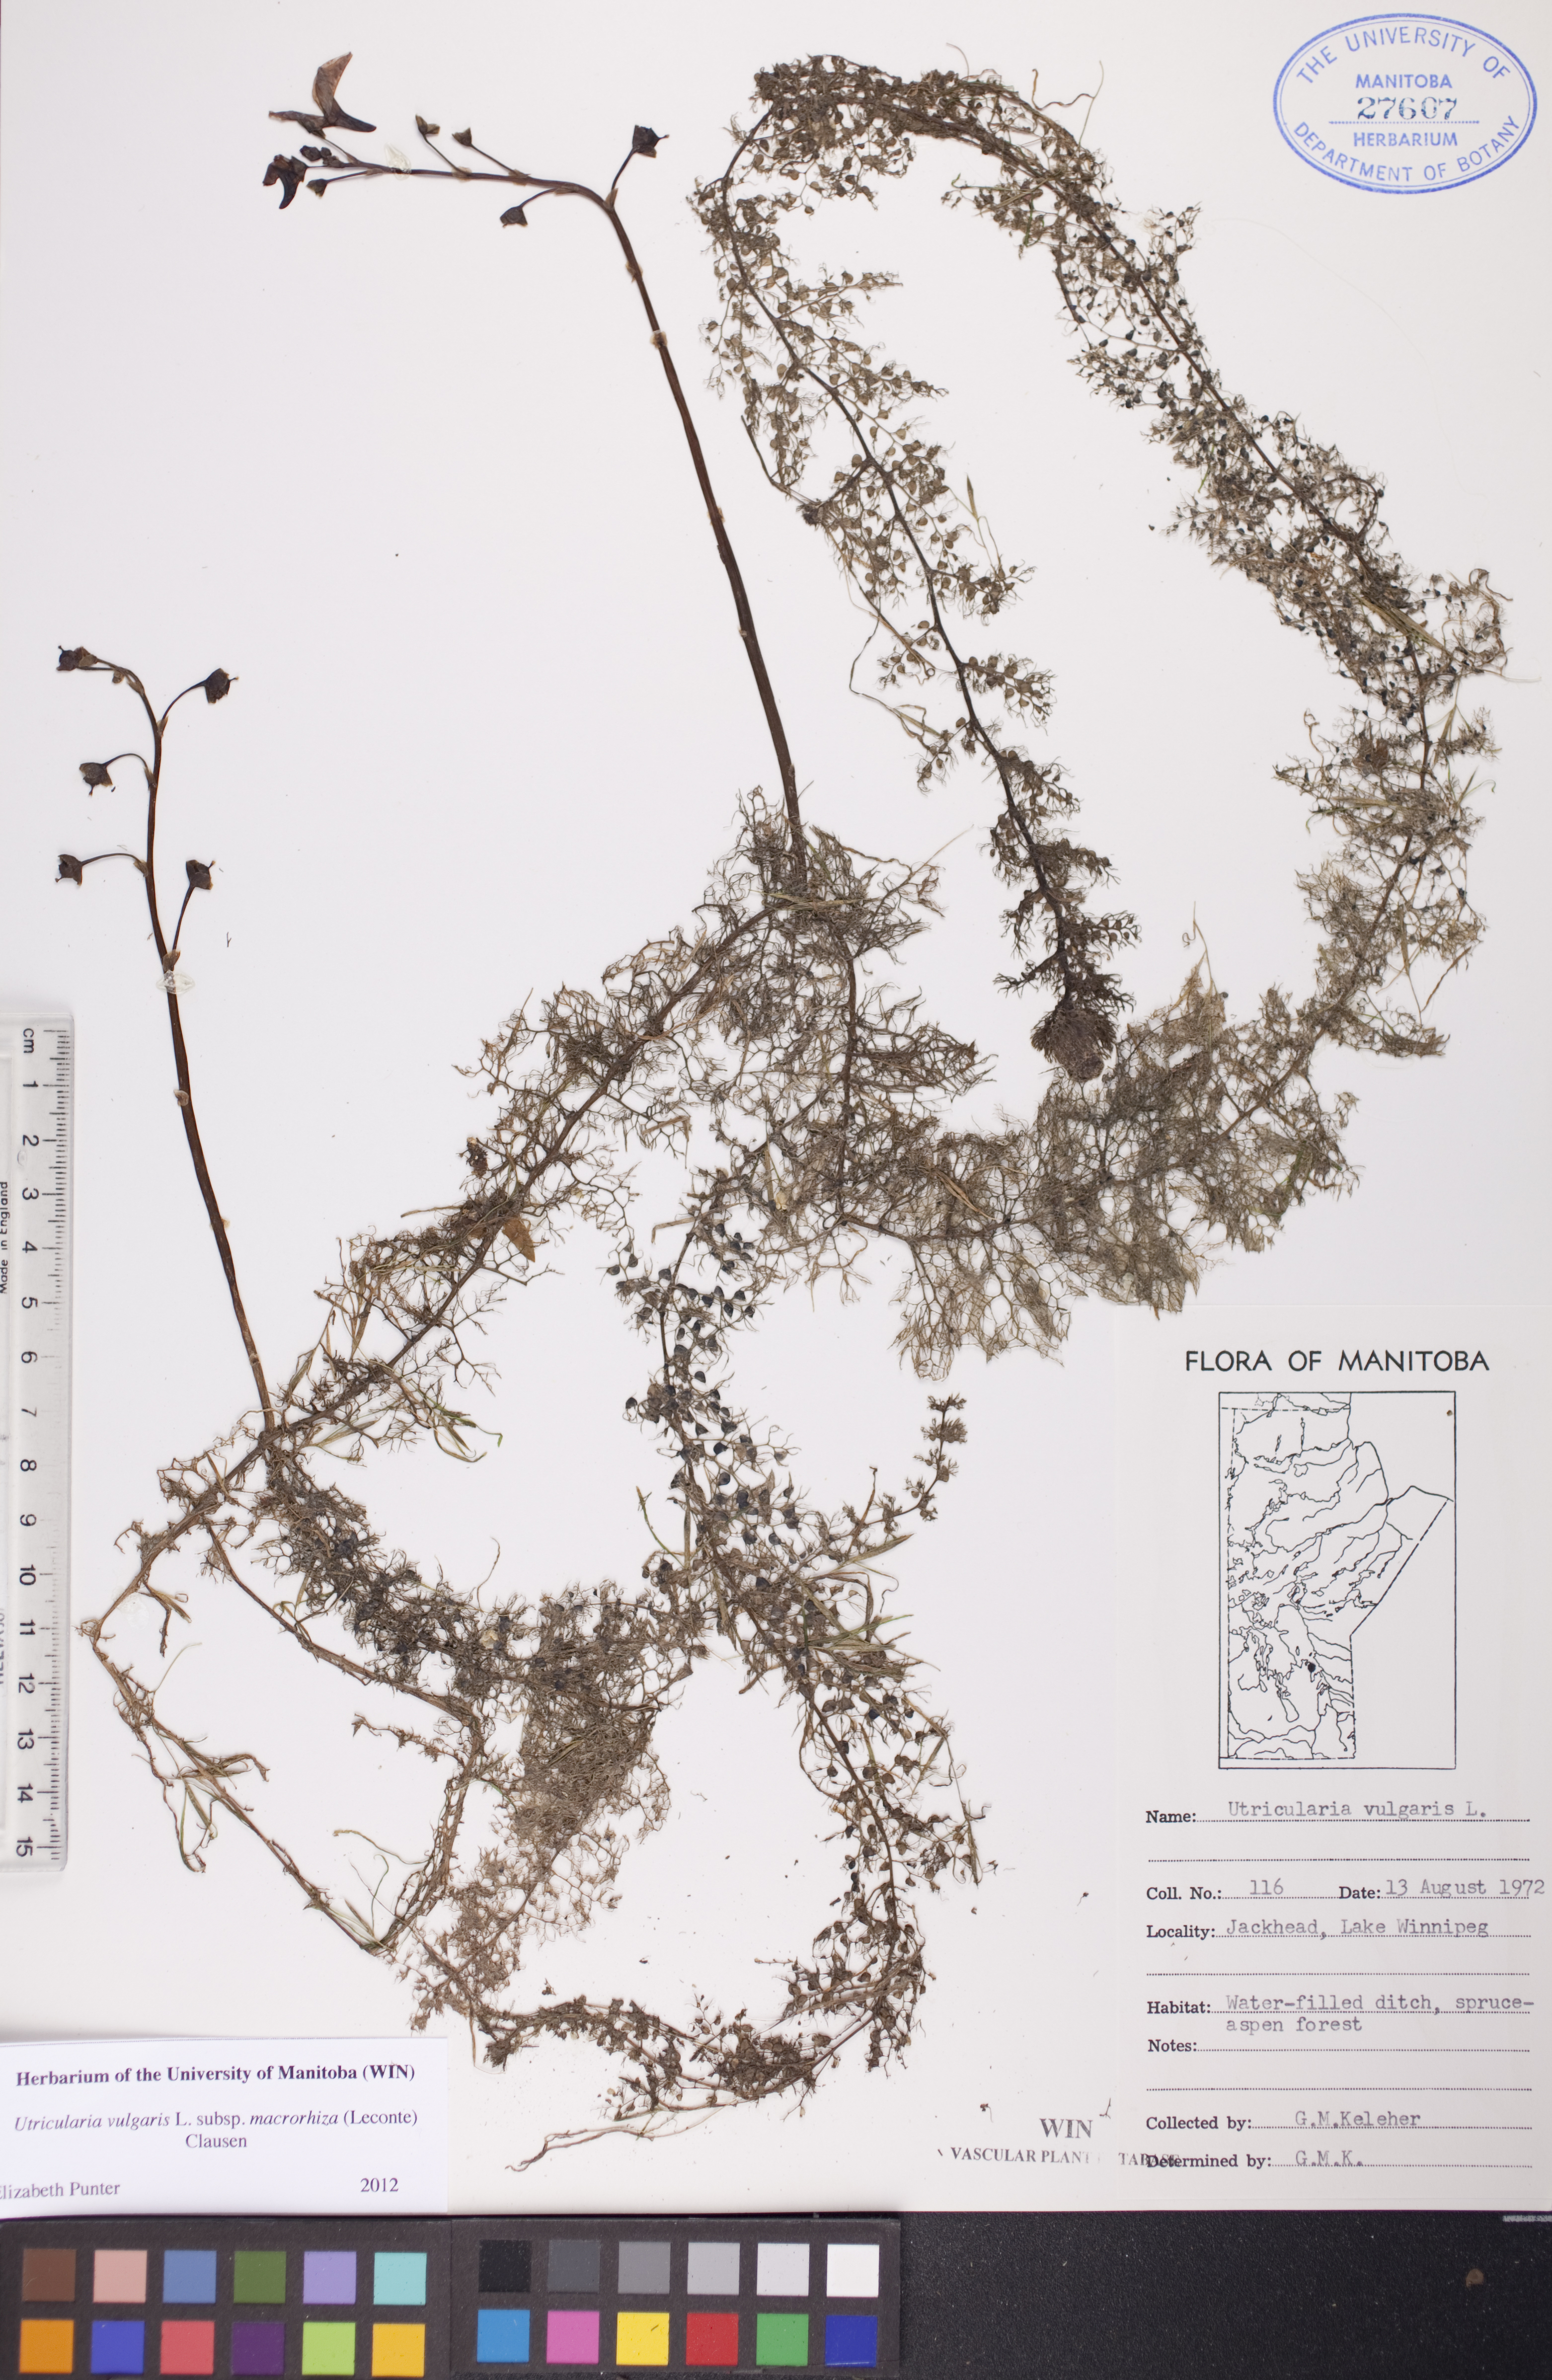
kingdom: Plantae
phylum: Tracheophyta
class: Magnoliopsida
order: Lamiales
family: Lentibulariaceae
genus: Utricularia
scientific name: Utricularia macrorhiza
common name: Common bladderwort
